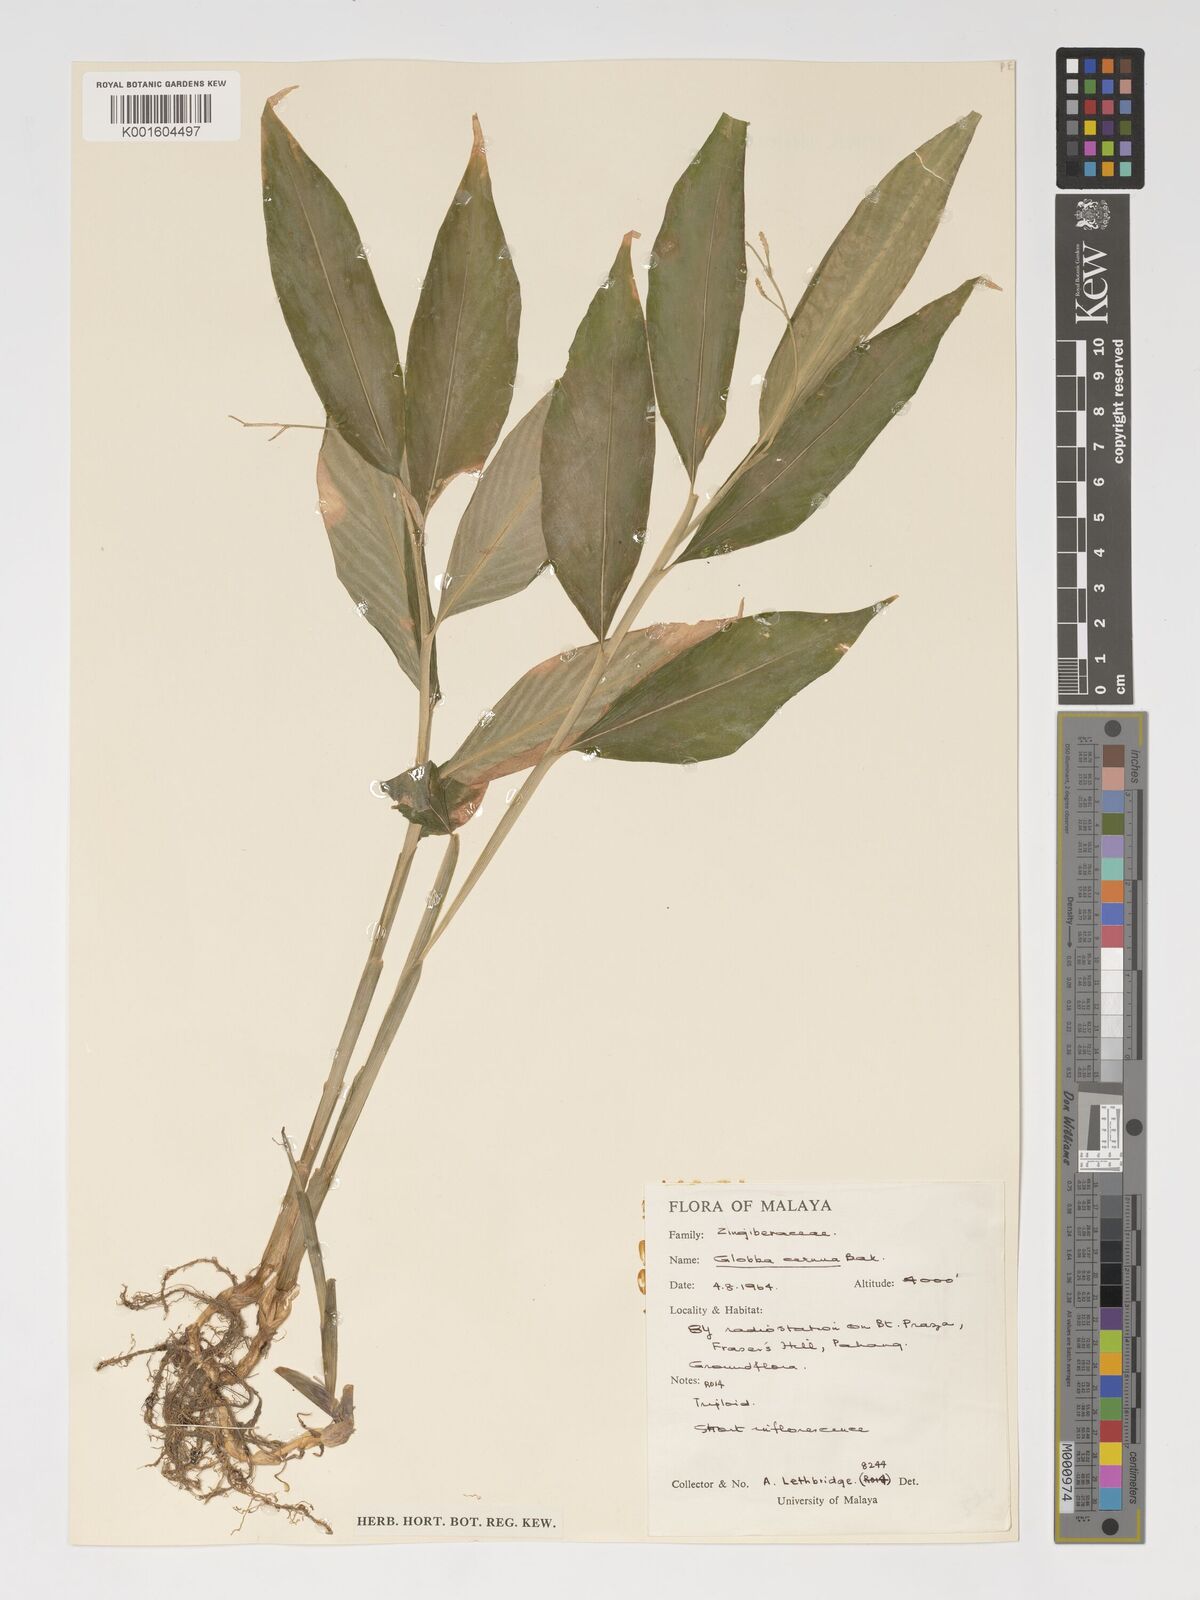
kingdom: Plantae
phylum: Tracheophyta
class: Liliopsida
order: Zingiberales
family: Zingiberaceae
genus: Globba
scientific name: Globba cernua
